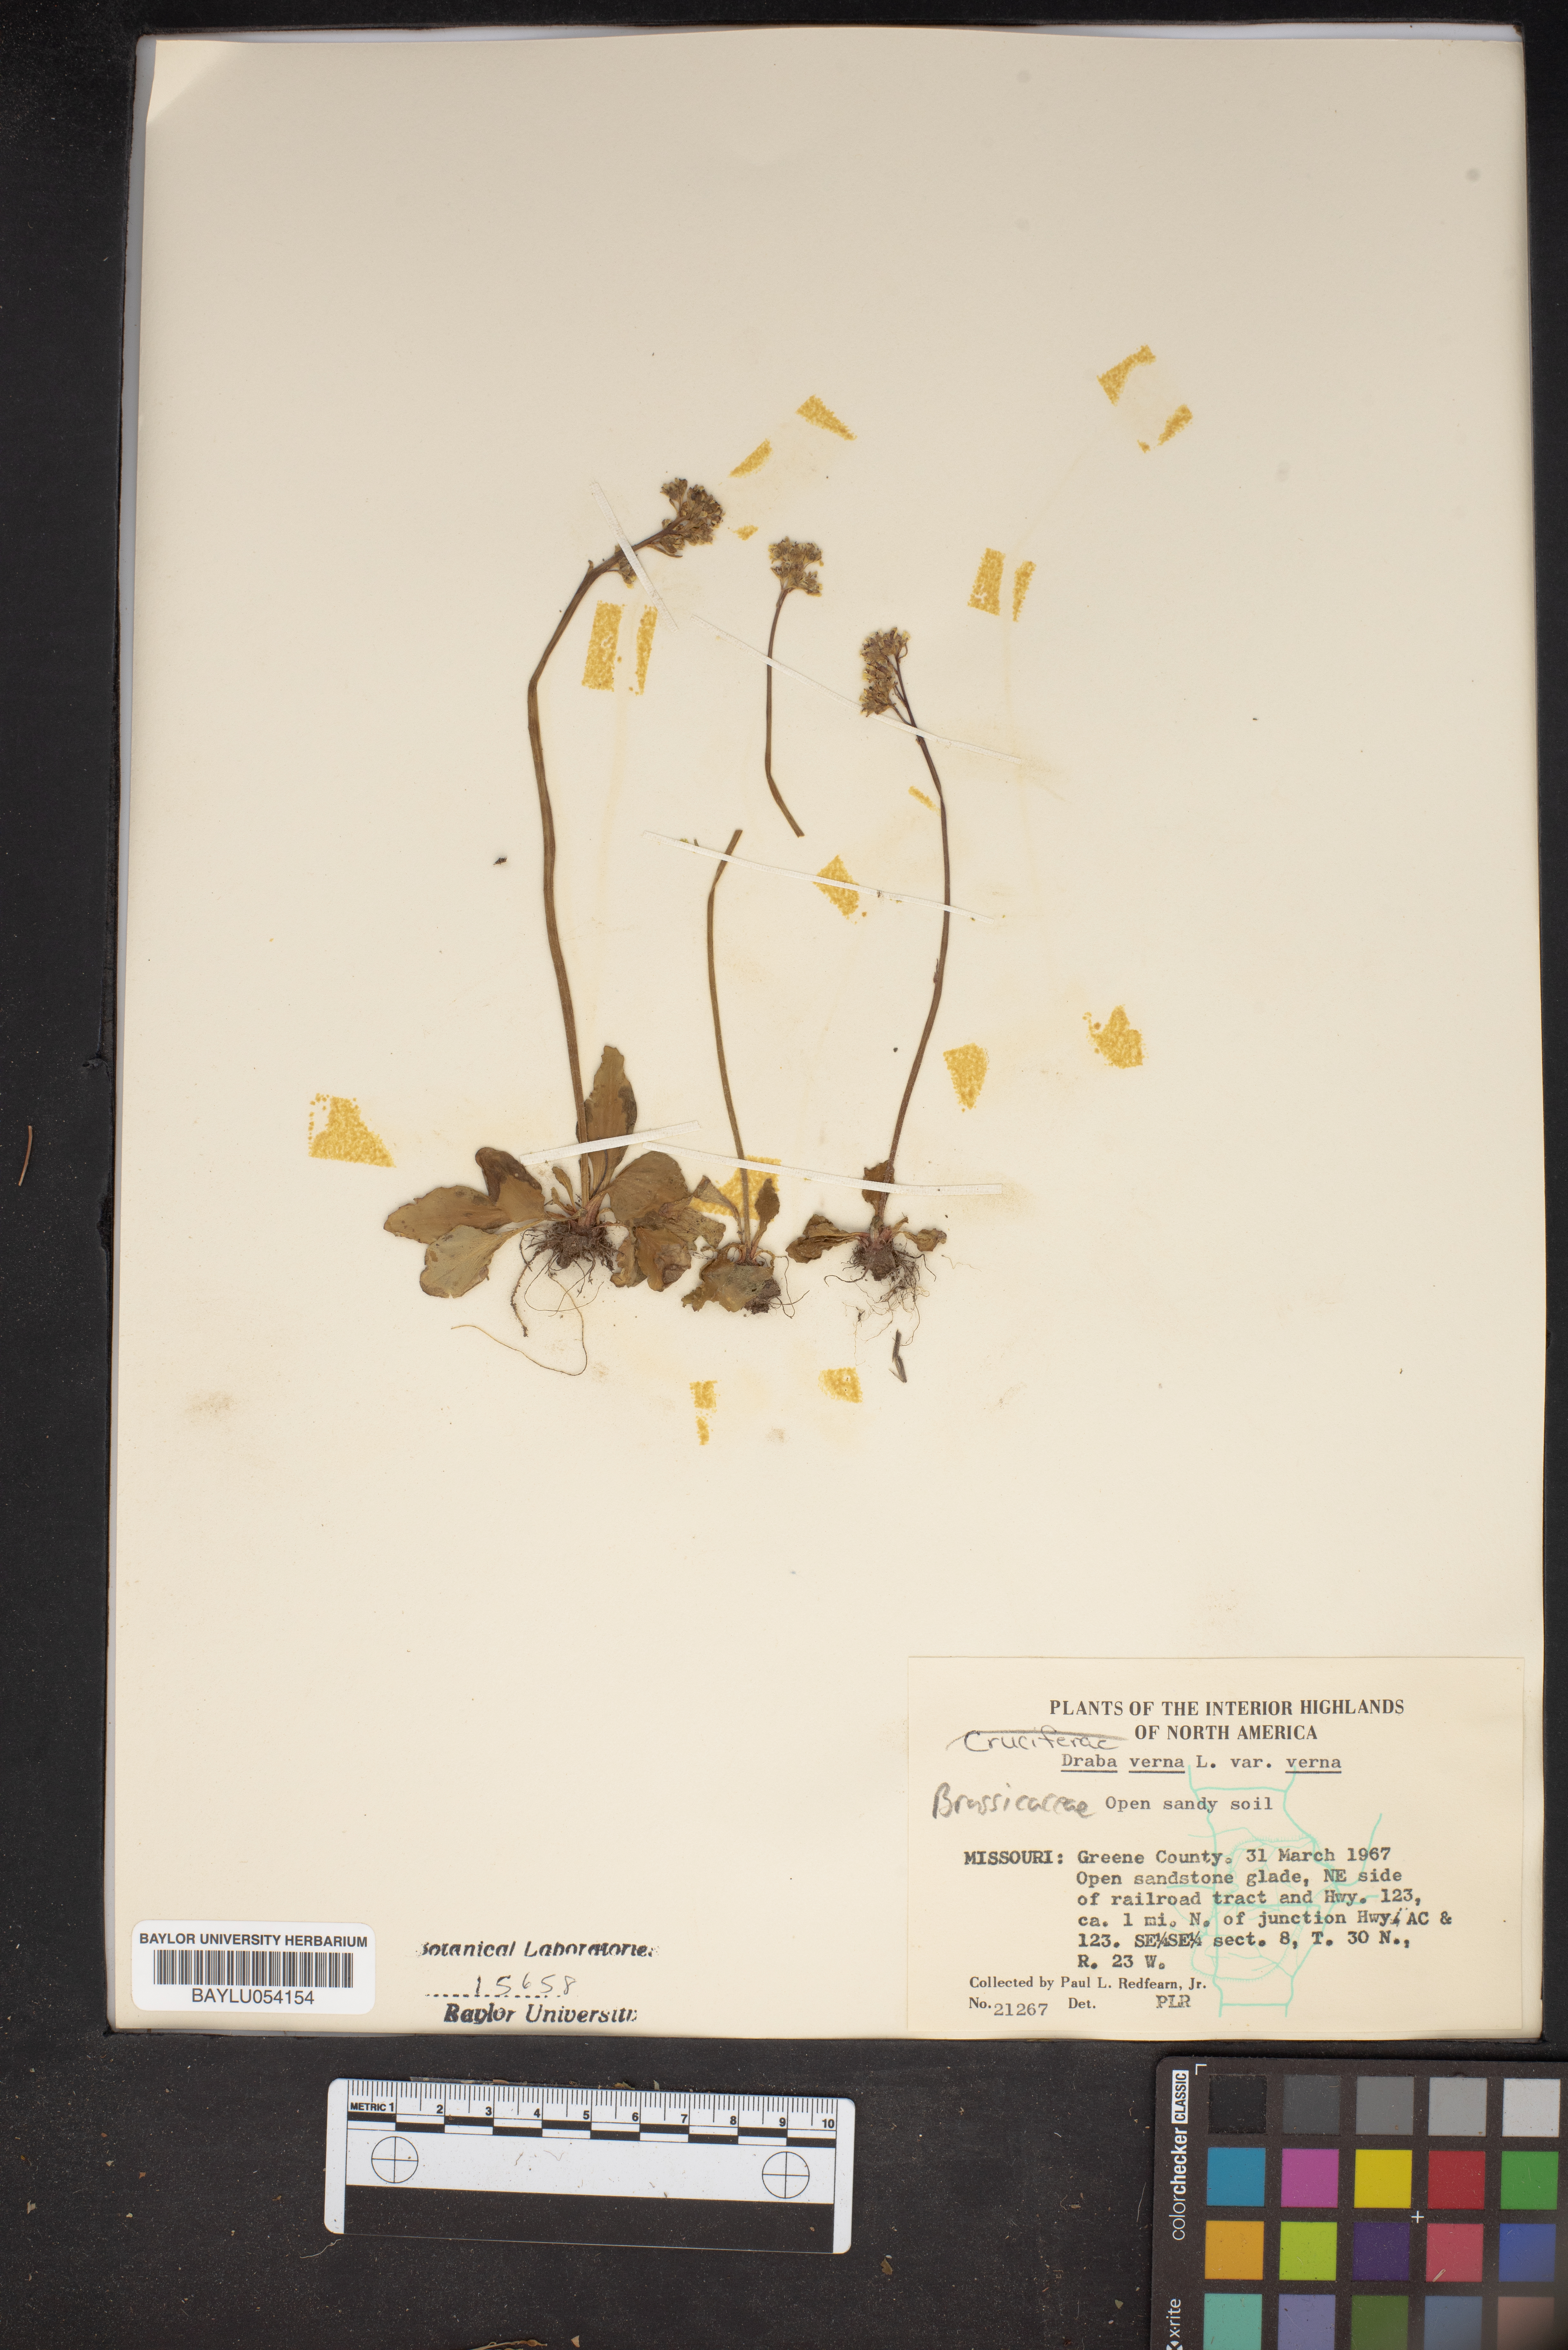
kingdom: Plantae
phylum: Tracheophyta
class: Magnoliopsida
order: Brassicales
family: Brassicaceae
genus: Draba
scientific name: Draba verna
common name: Spring draba
